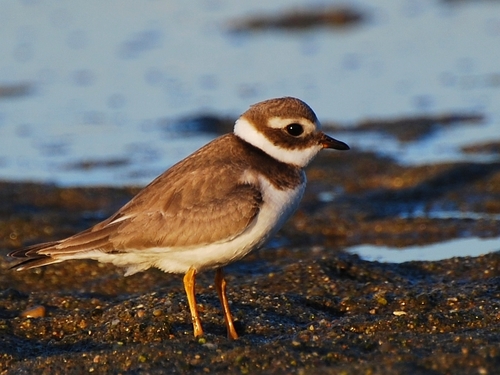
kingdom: Animalia
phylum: Chordata
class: Aves
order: Charadriiformes
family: Charadriidae
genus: Charadrius
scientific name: Charadrius hiaticula
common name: Common ringed plover
